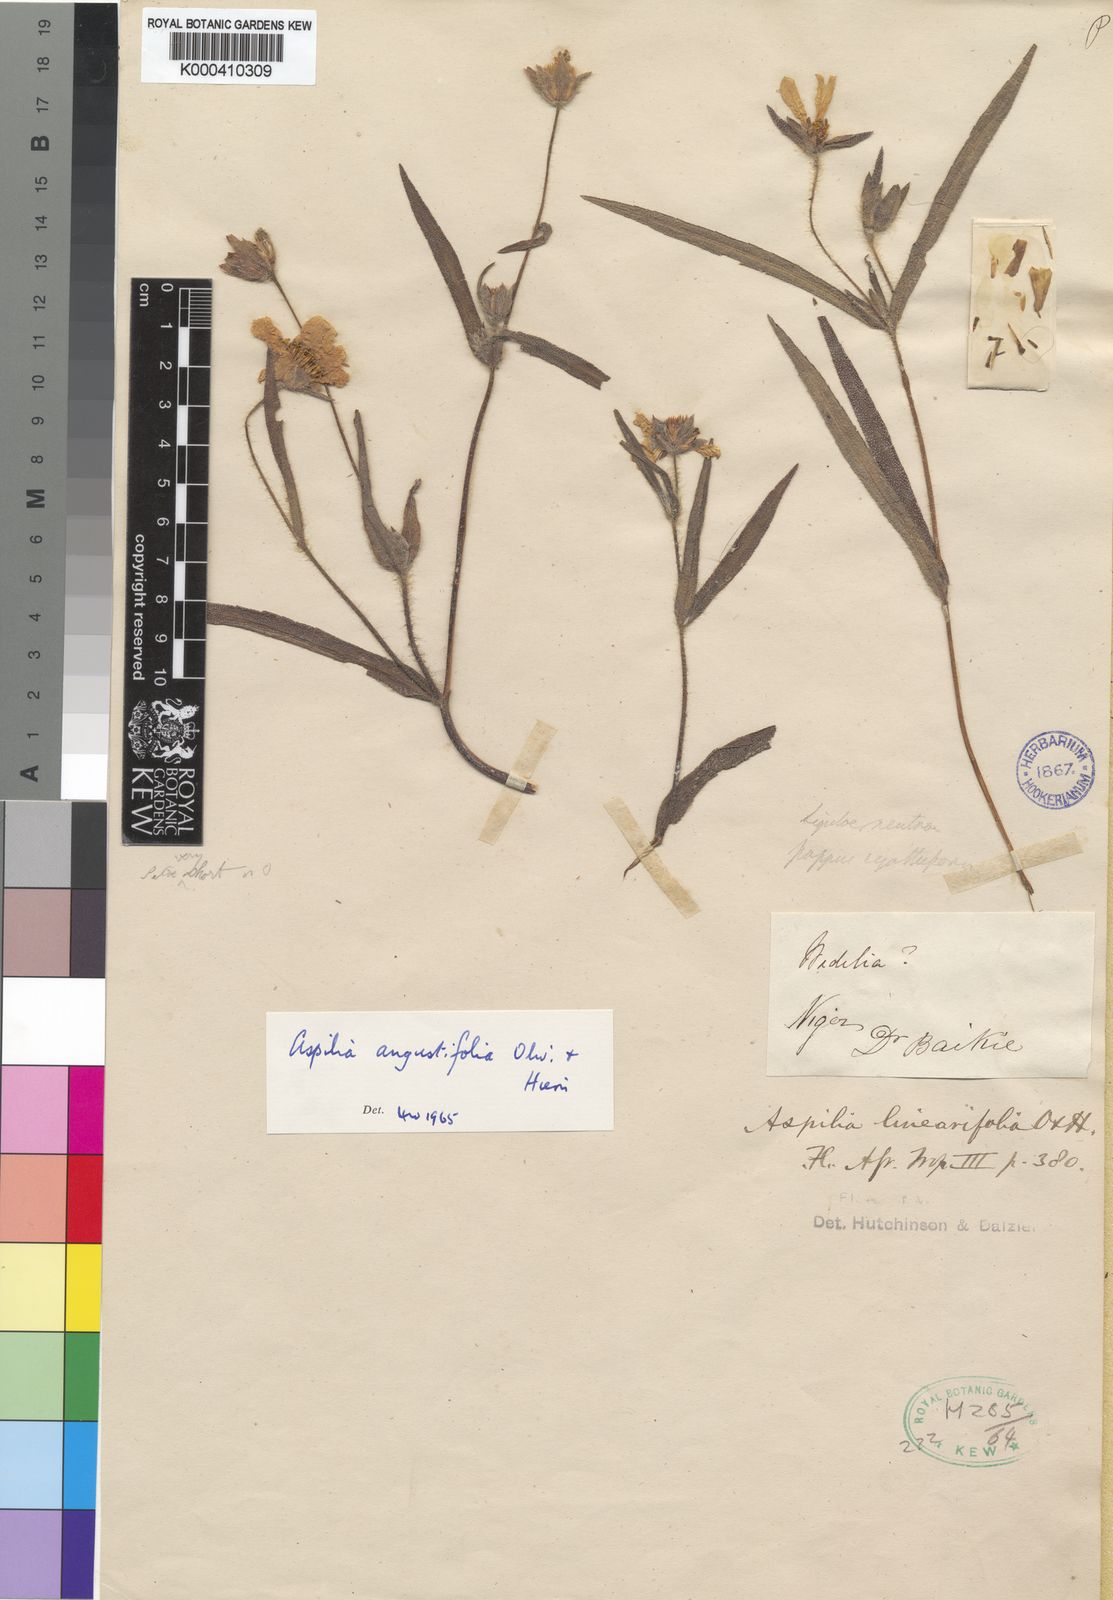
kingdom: Plantae
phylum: Tracheophyta
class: Magnoliopsida
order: Asterales
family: Asteraceae
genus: Aspilia
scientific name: Aspilia angustifolia
